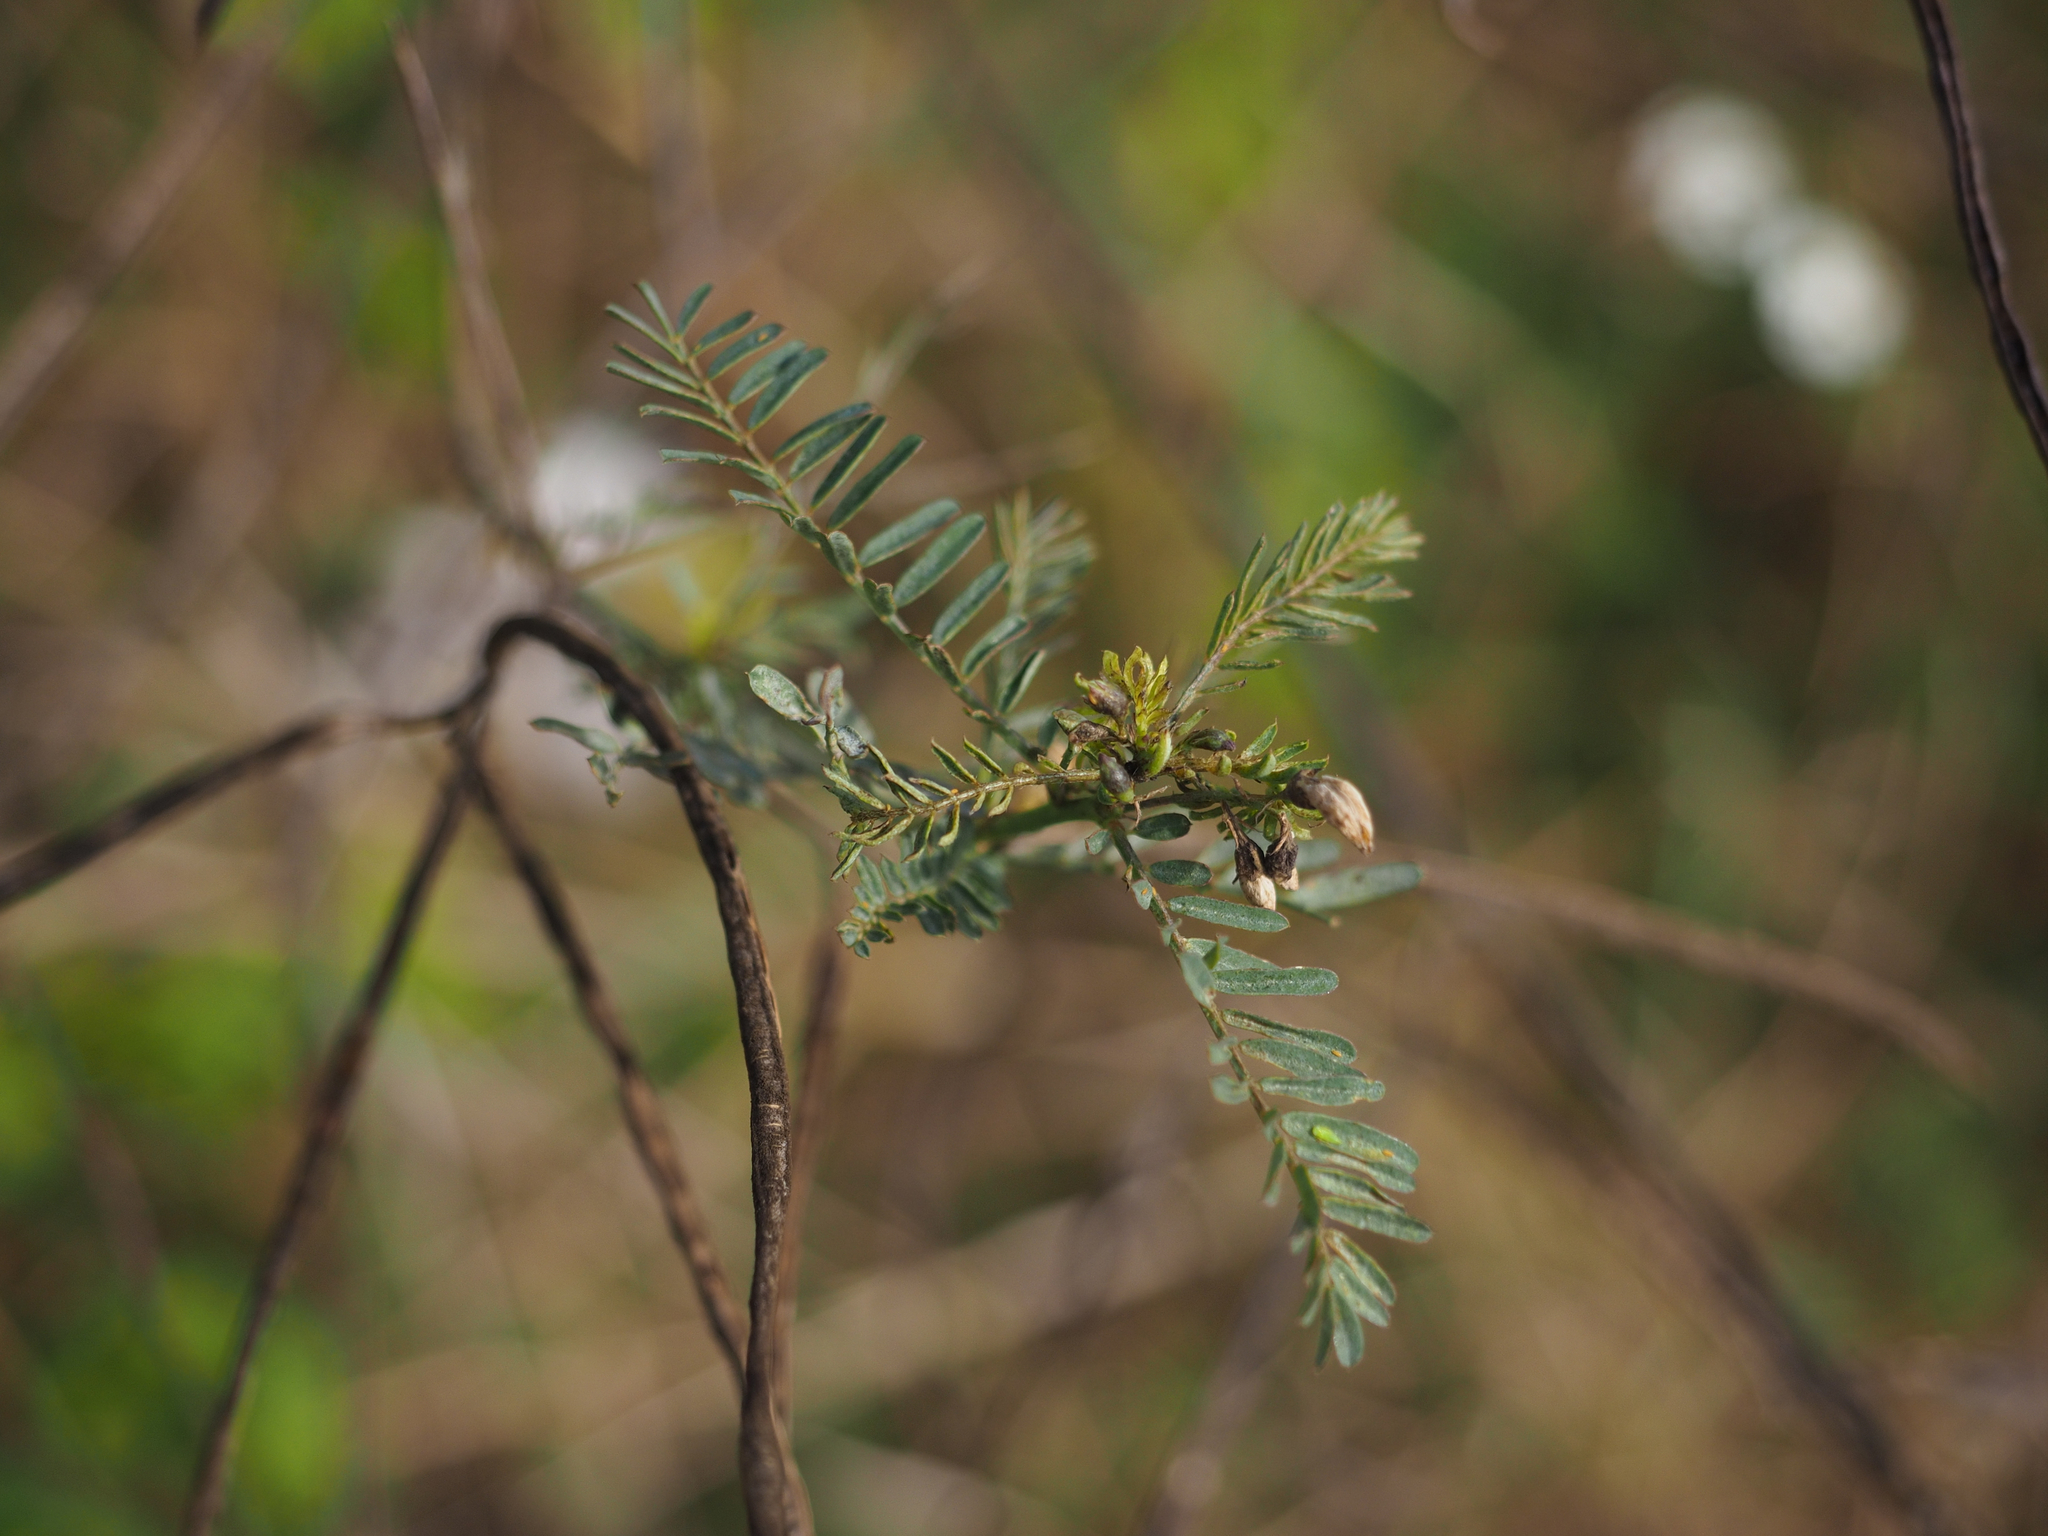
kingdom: Plantae
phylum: Tracheophyta
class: Magnoliopsida
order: Fabales
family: Fabaceae
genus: Sesbania
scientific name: Sesbania cannabina
